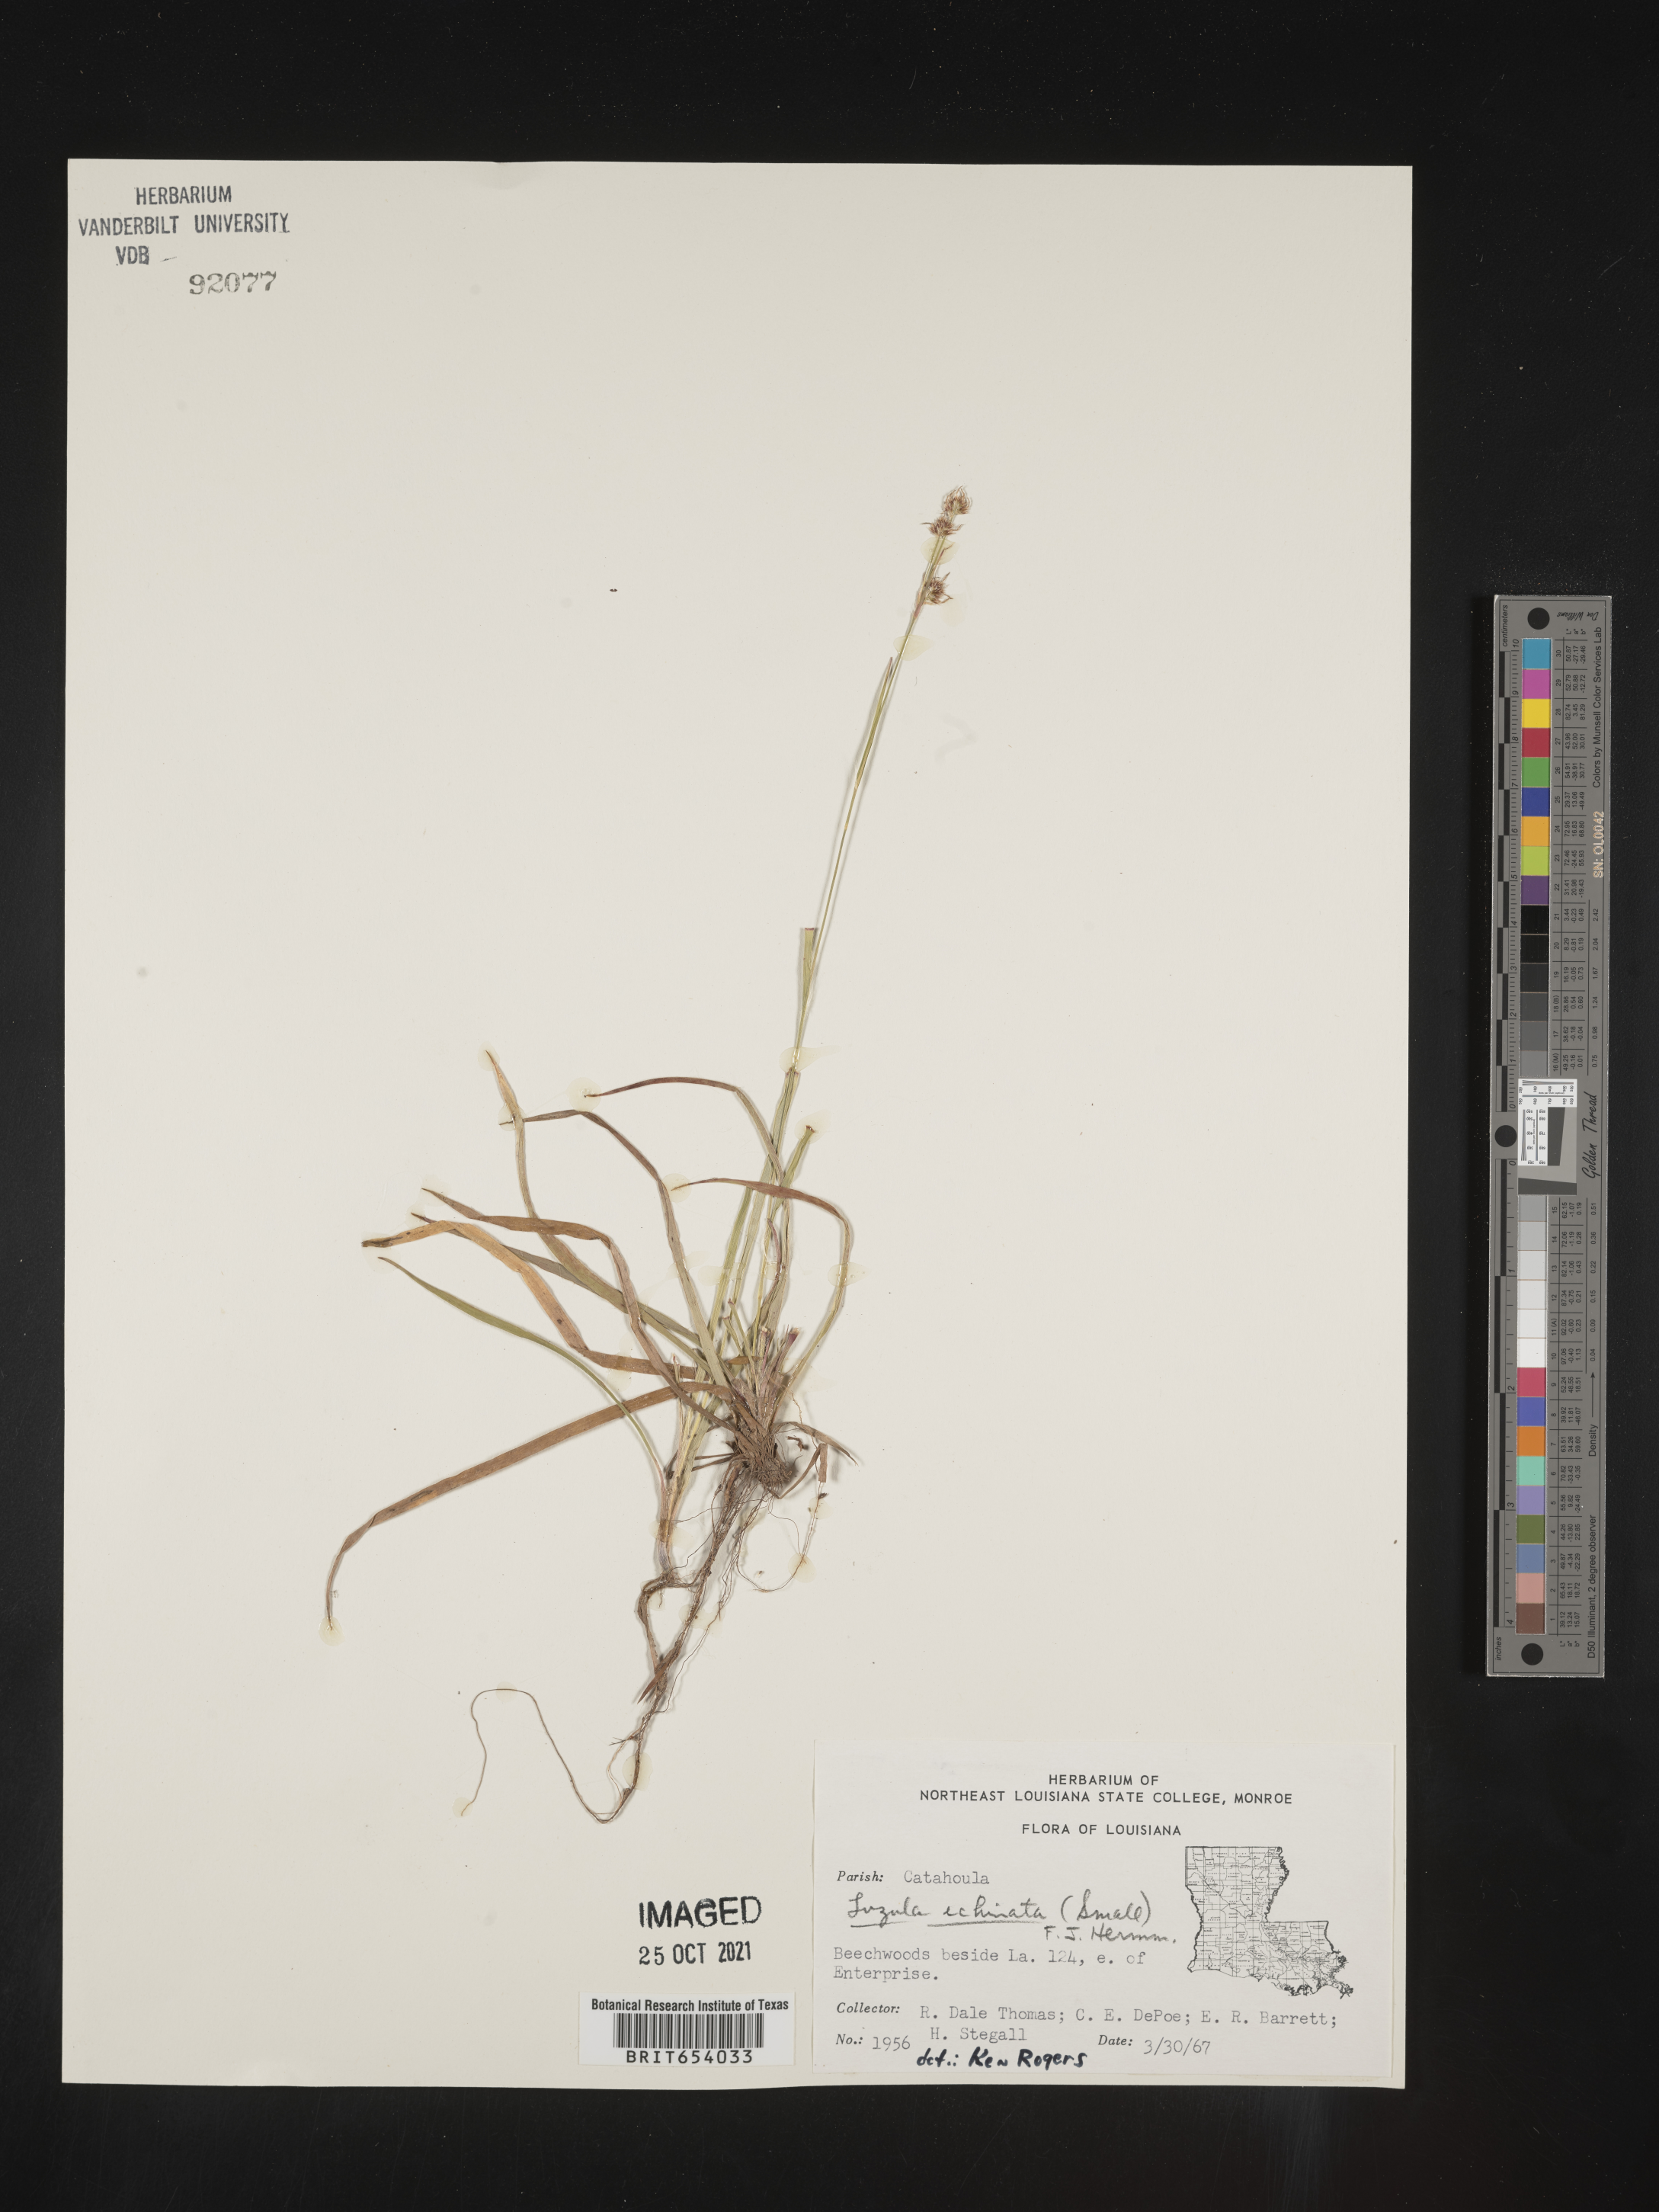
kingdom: Plantae
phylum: Tracheophyta
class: Liliopsida
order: Poales
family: Juncaceae
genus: Luzula
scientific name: Luzula echinata
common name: Hedgehog woodrush
